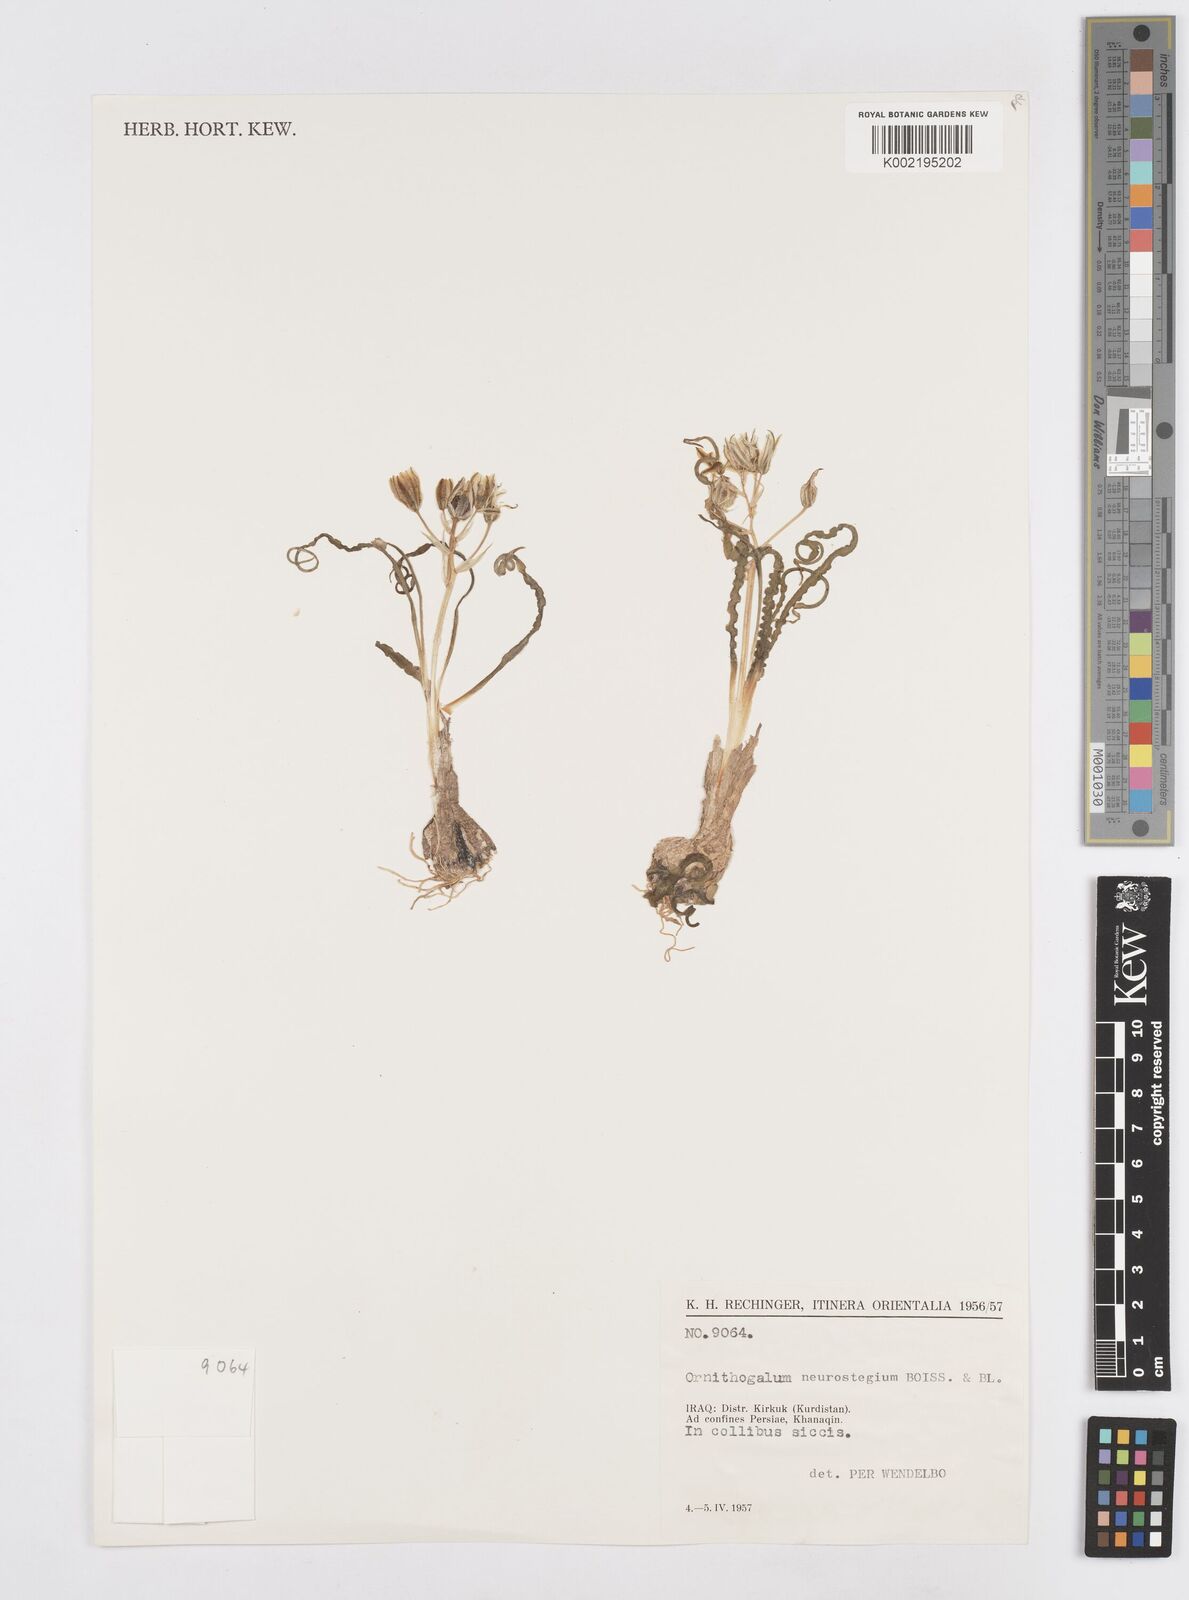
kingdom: Plantae
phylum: Tracheophyta
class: Liliopsida
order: Asparagales
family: Asparagaceae
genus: Ornithogalum
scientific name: Ornithogalum neurostegium
